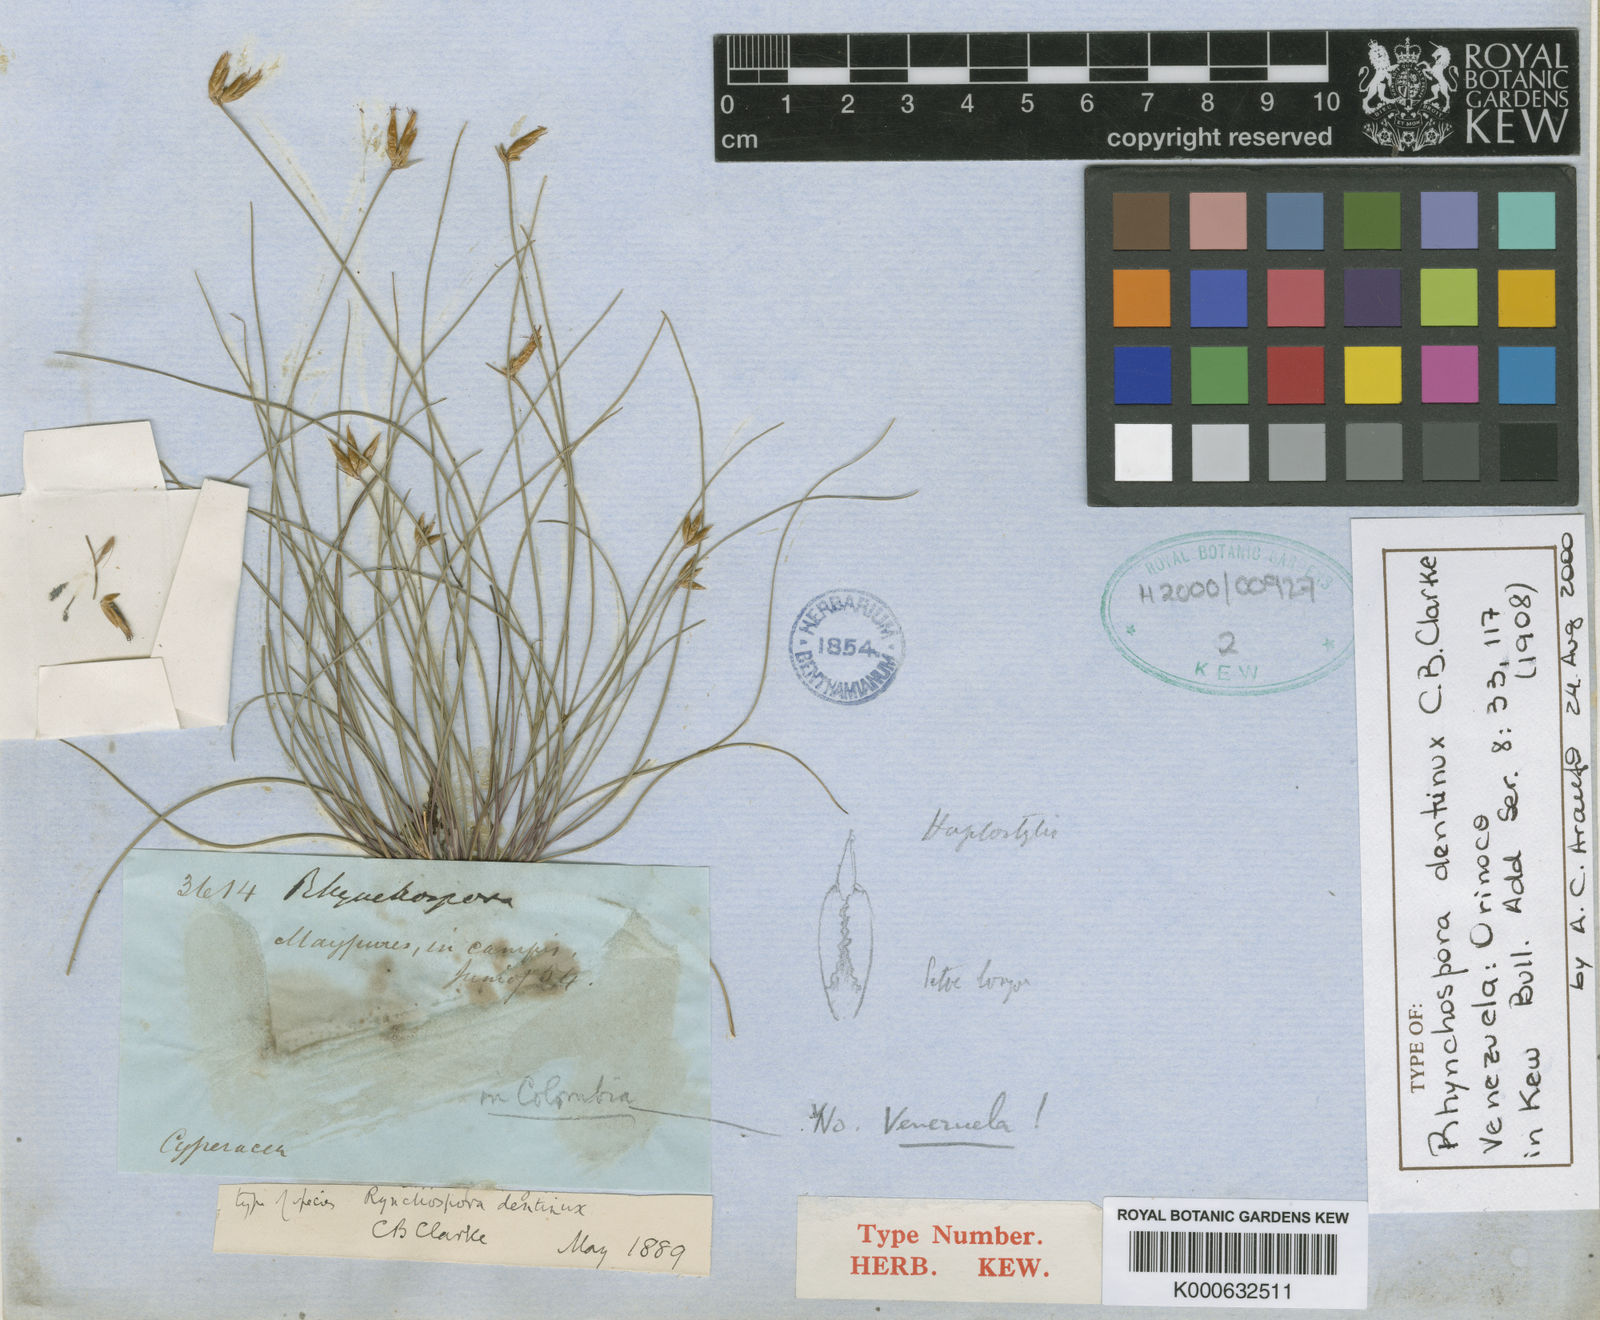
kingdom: Plantae
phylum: Tracheophyta
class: Liliopsida
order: Poales
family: Cyperaceae
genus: Rhynchospora
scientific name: Rhynchospora dentinux
